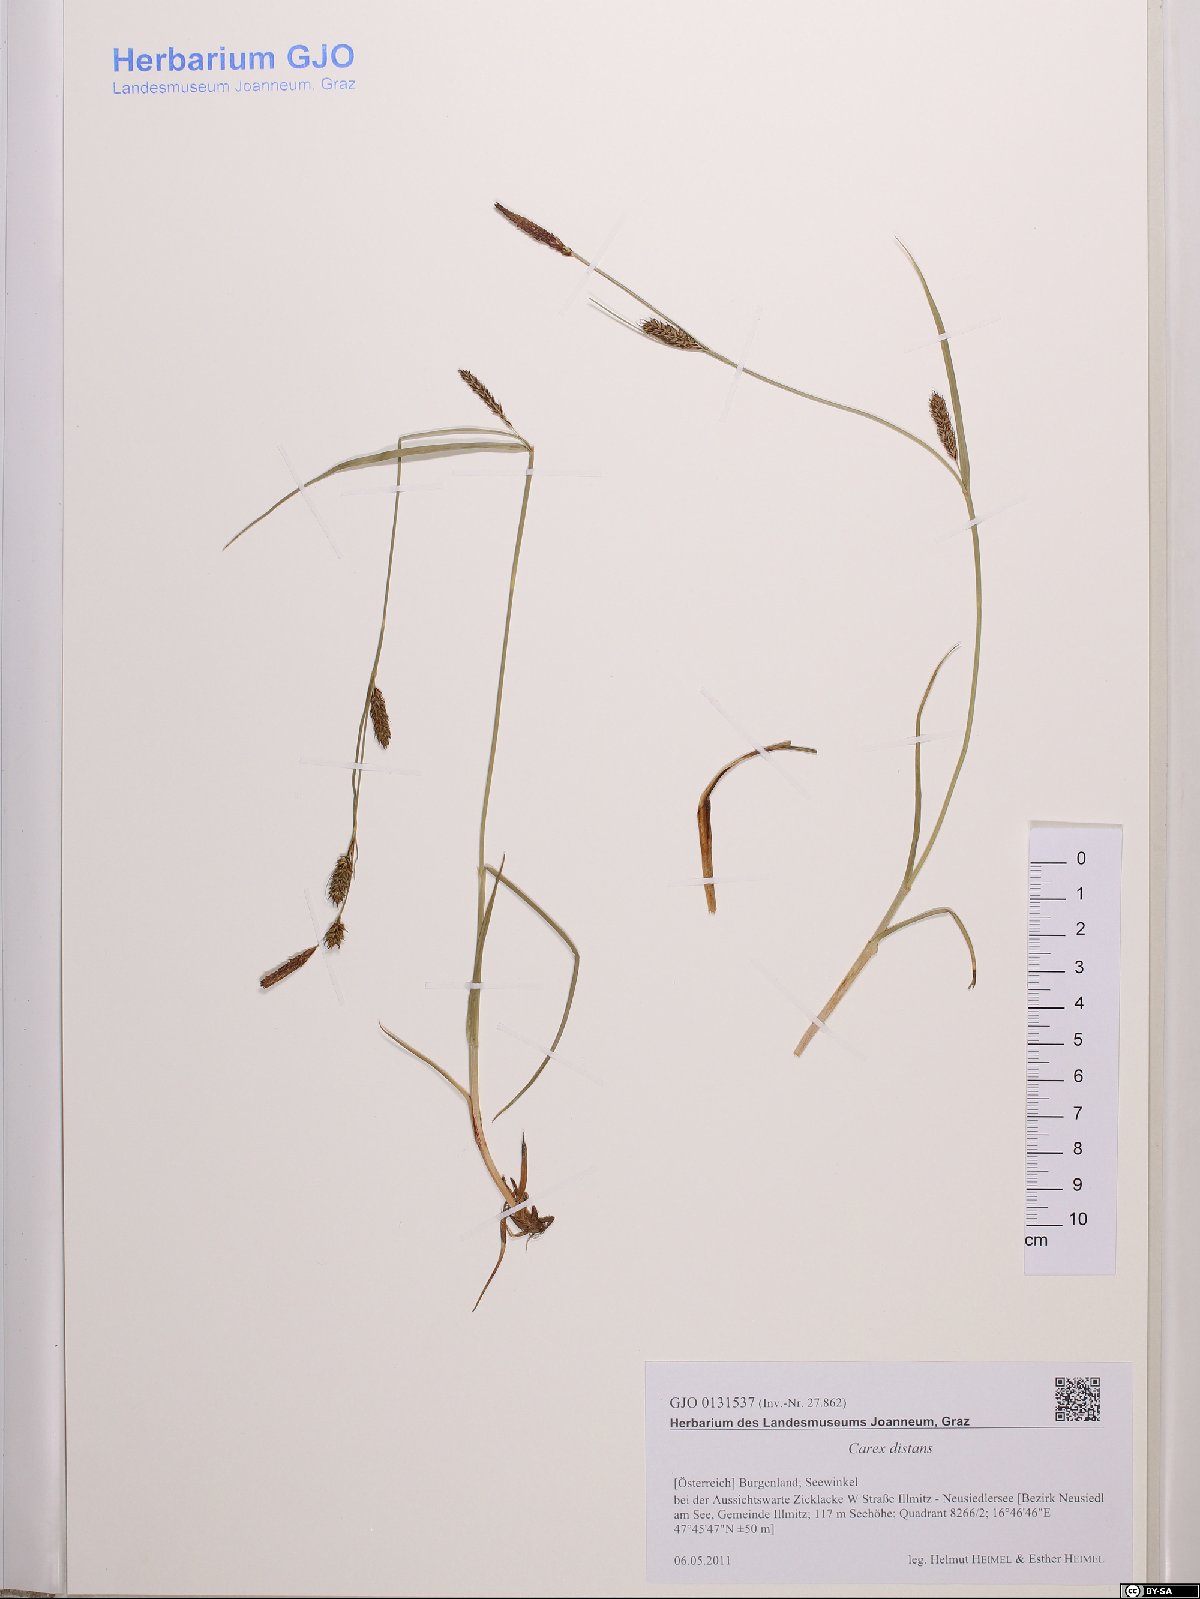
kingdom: Plantae
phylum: Tracheophyta
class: Liliopsida
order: Poales
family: Cyperaceae
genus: Carex
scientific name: Carex distans
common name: Distant sedge
